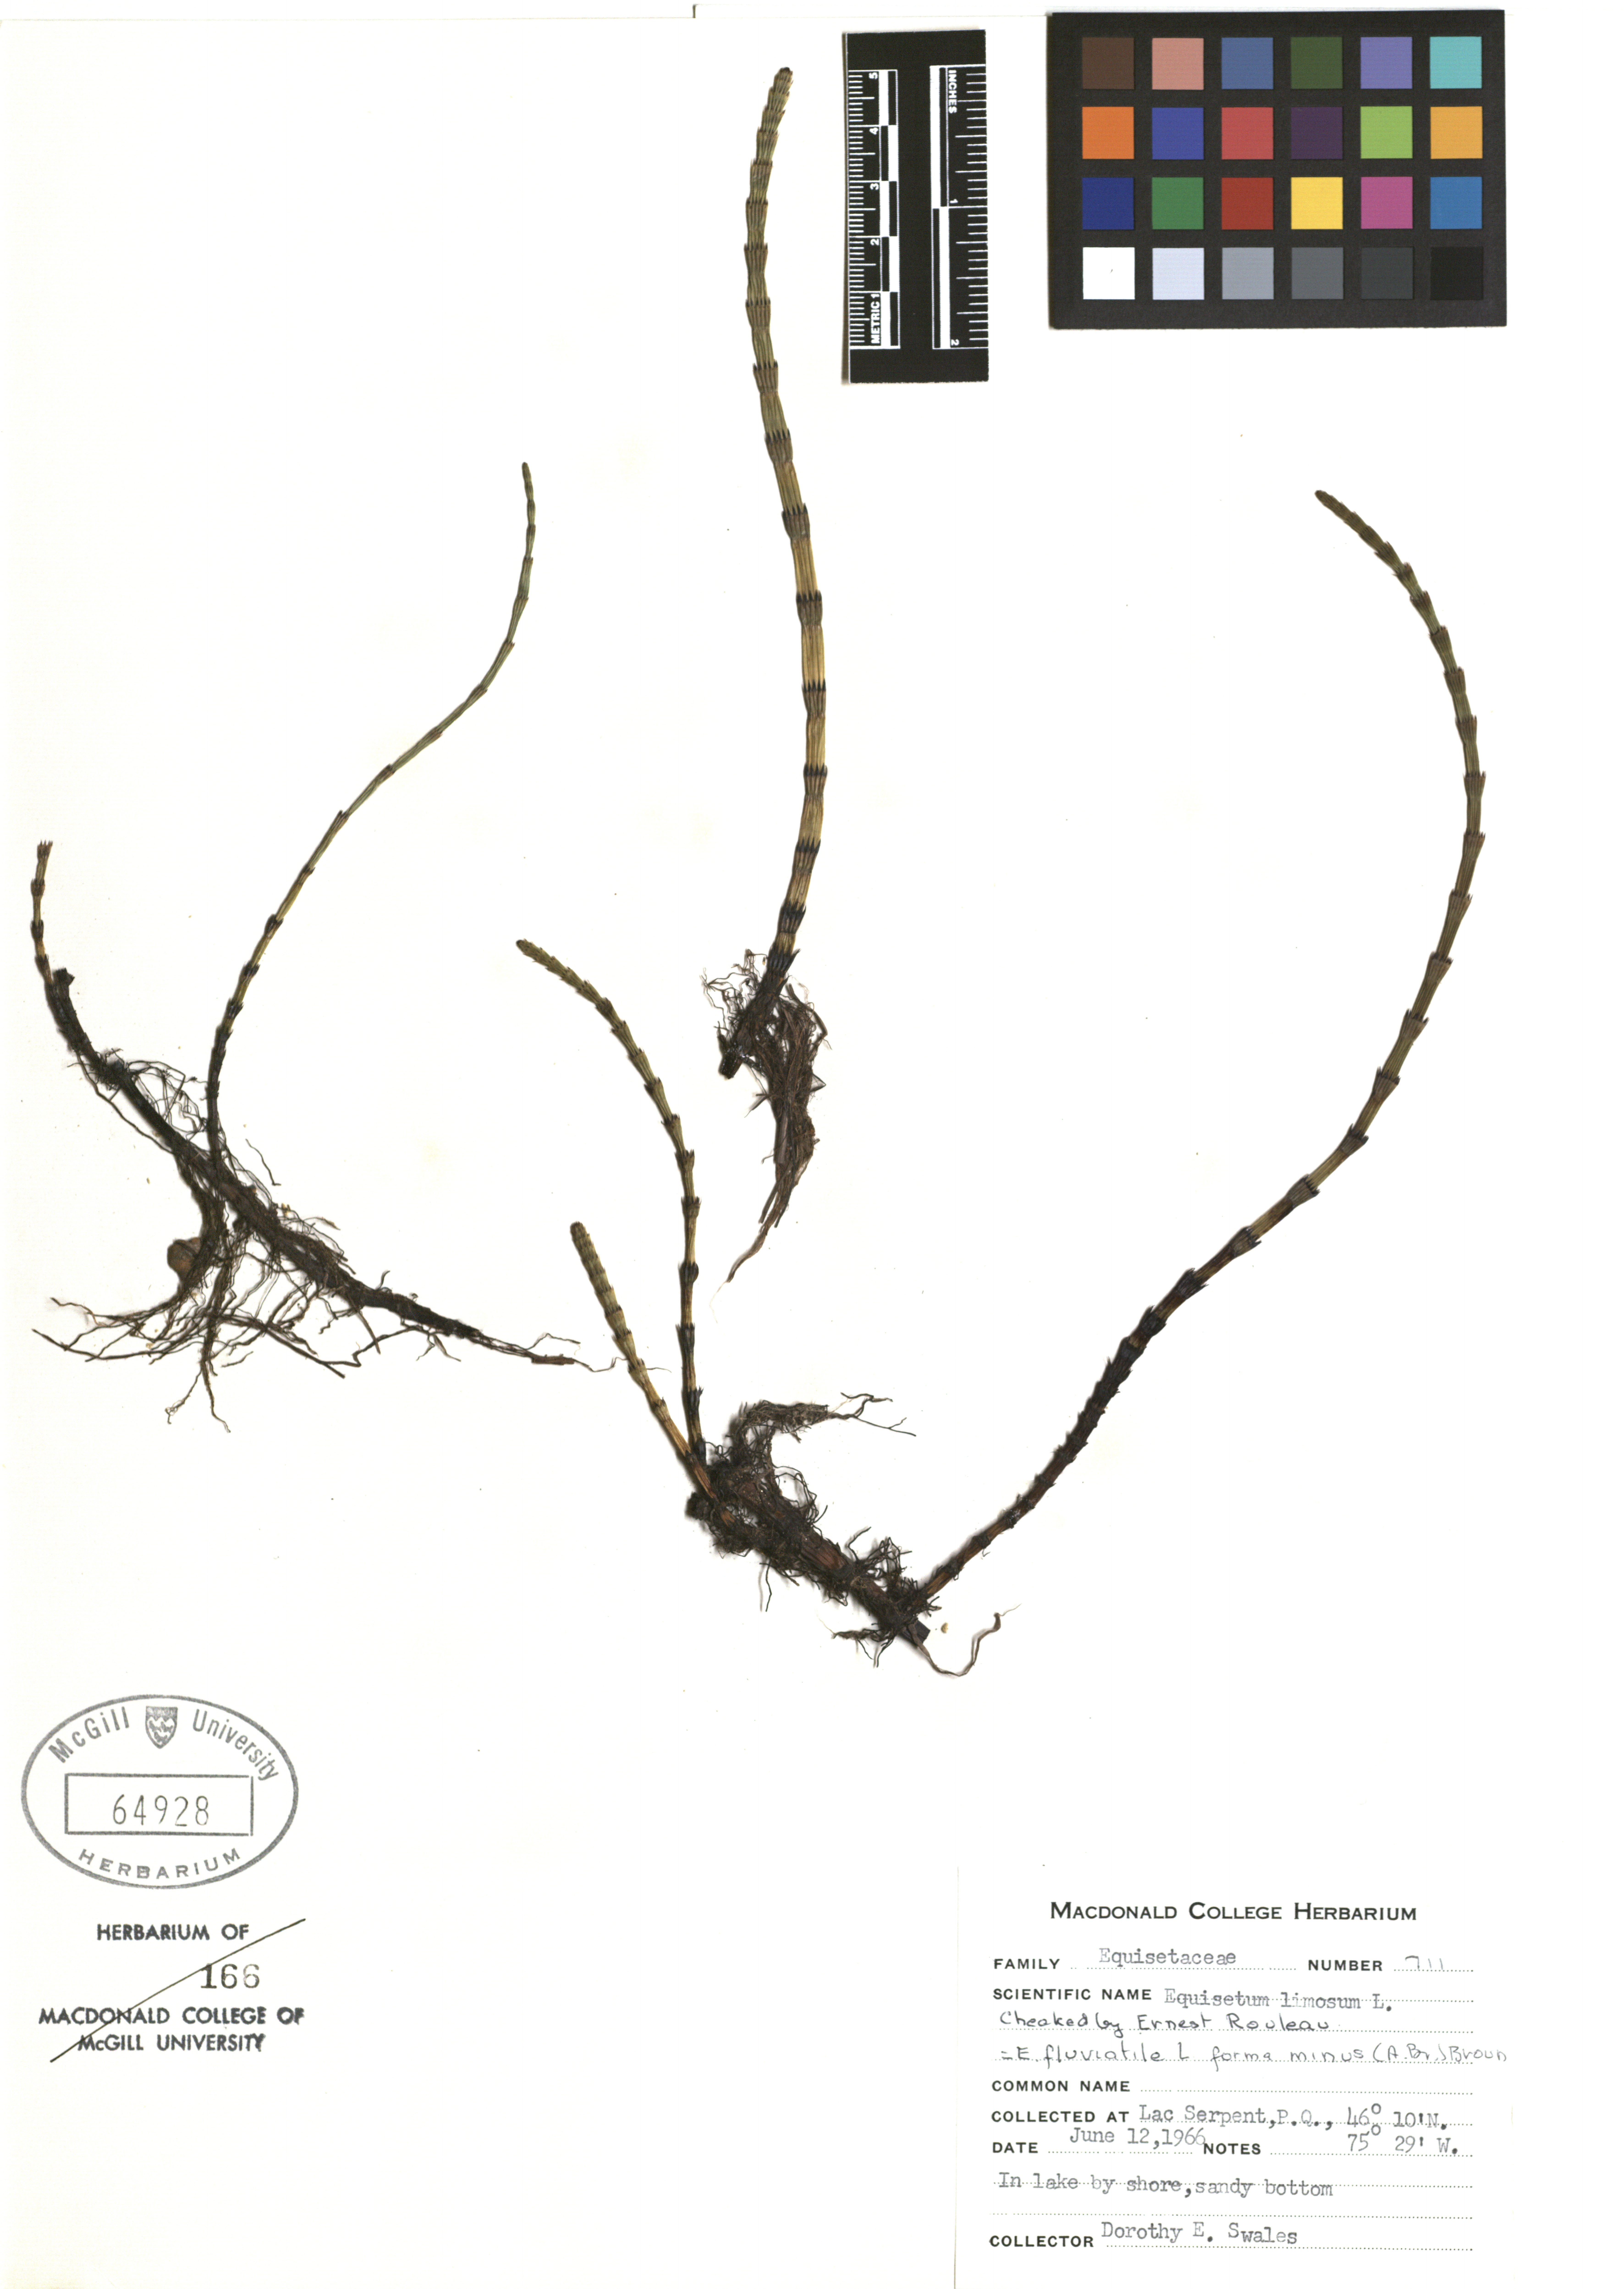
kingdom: Plantae
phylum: Tracheophyta
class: Polypodiopsida
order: Equisetales
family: Equisetaceae
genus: Equisetum
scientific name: Equisetum fluviatile
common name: Water horsetail
